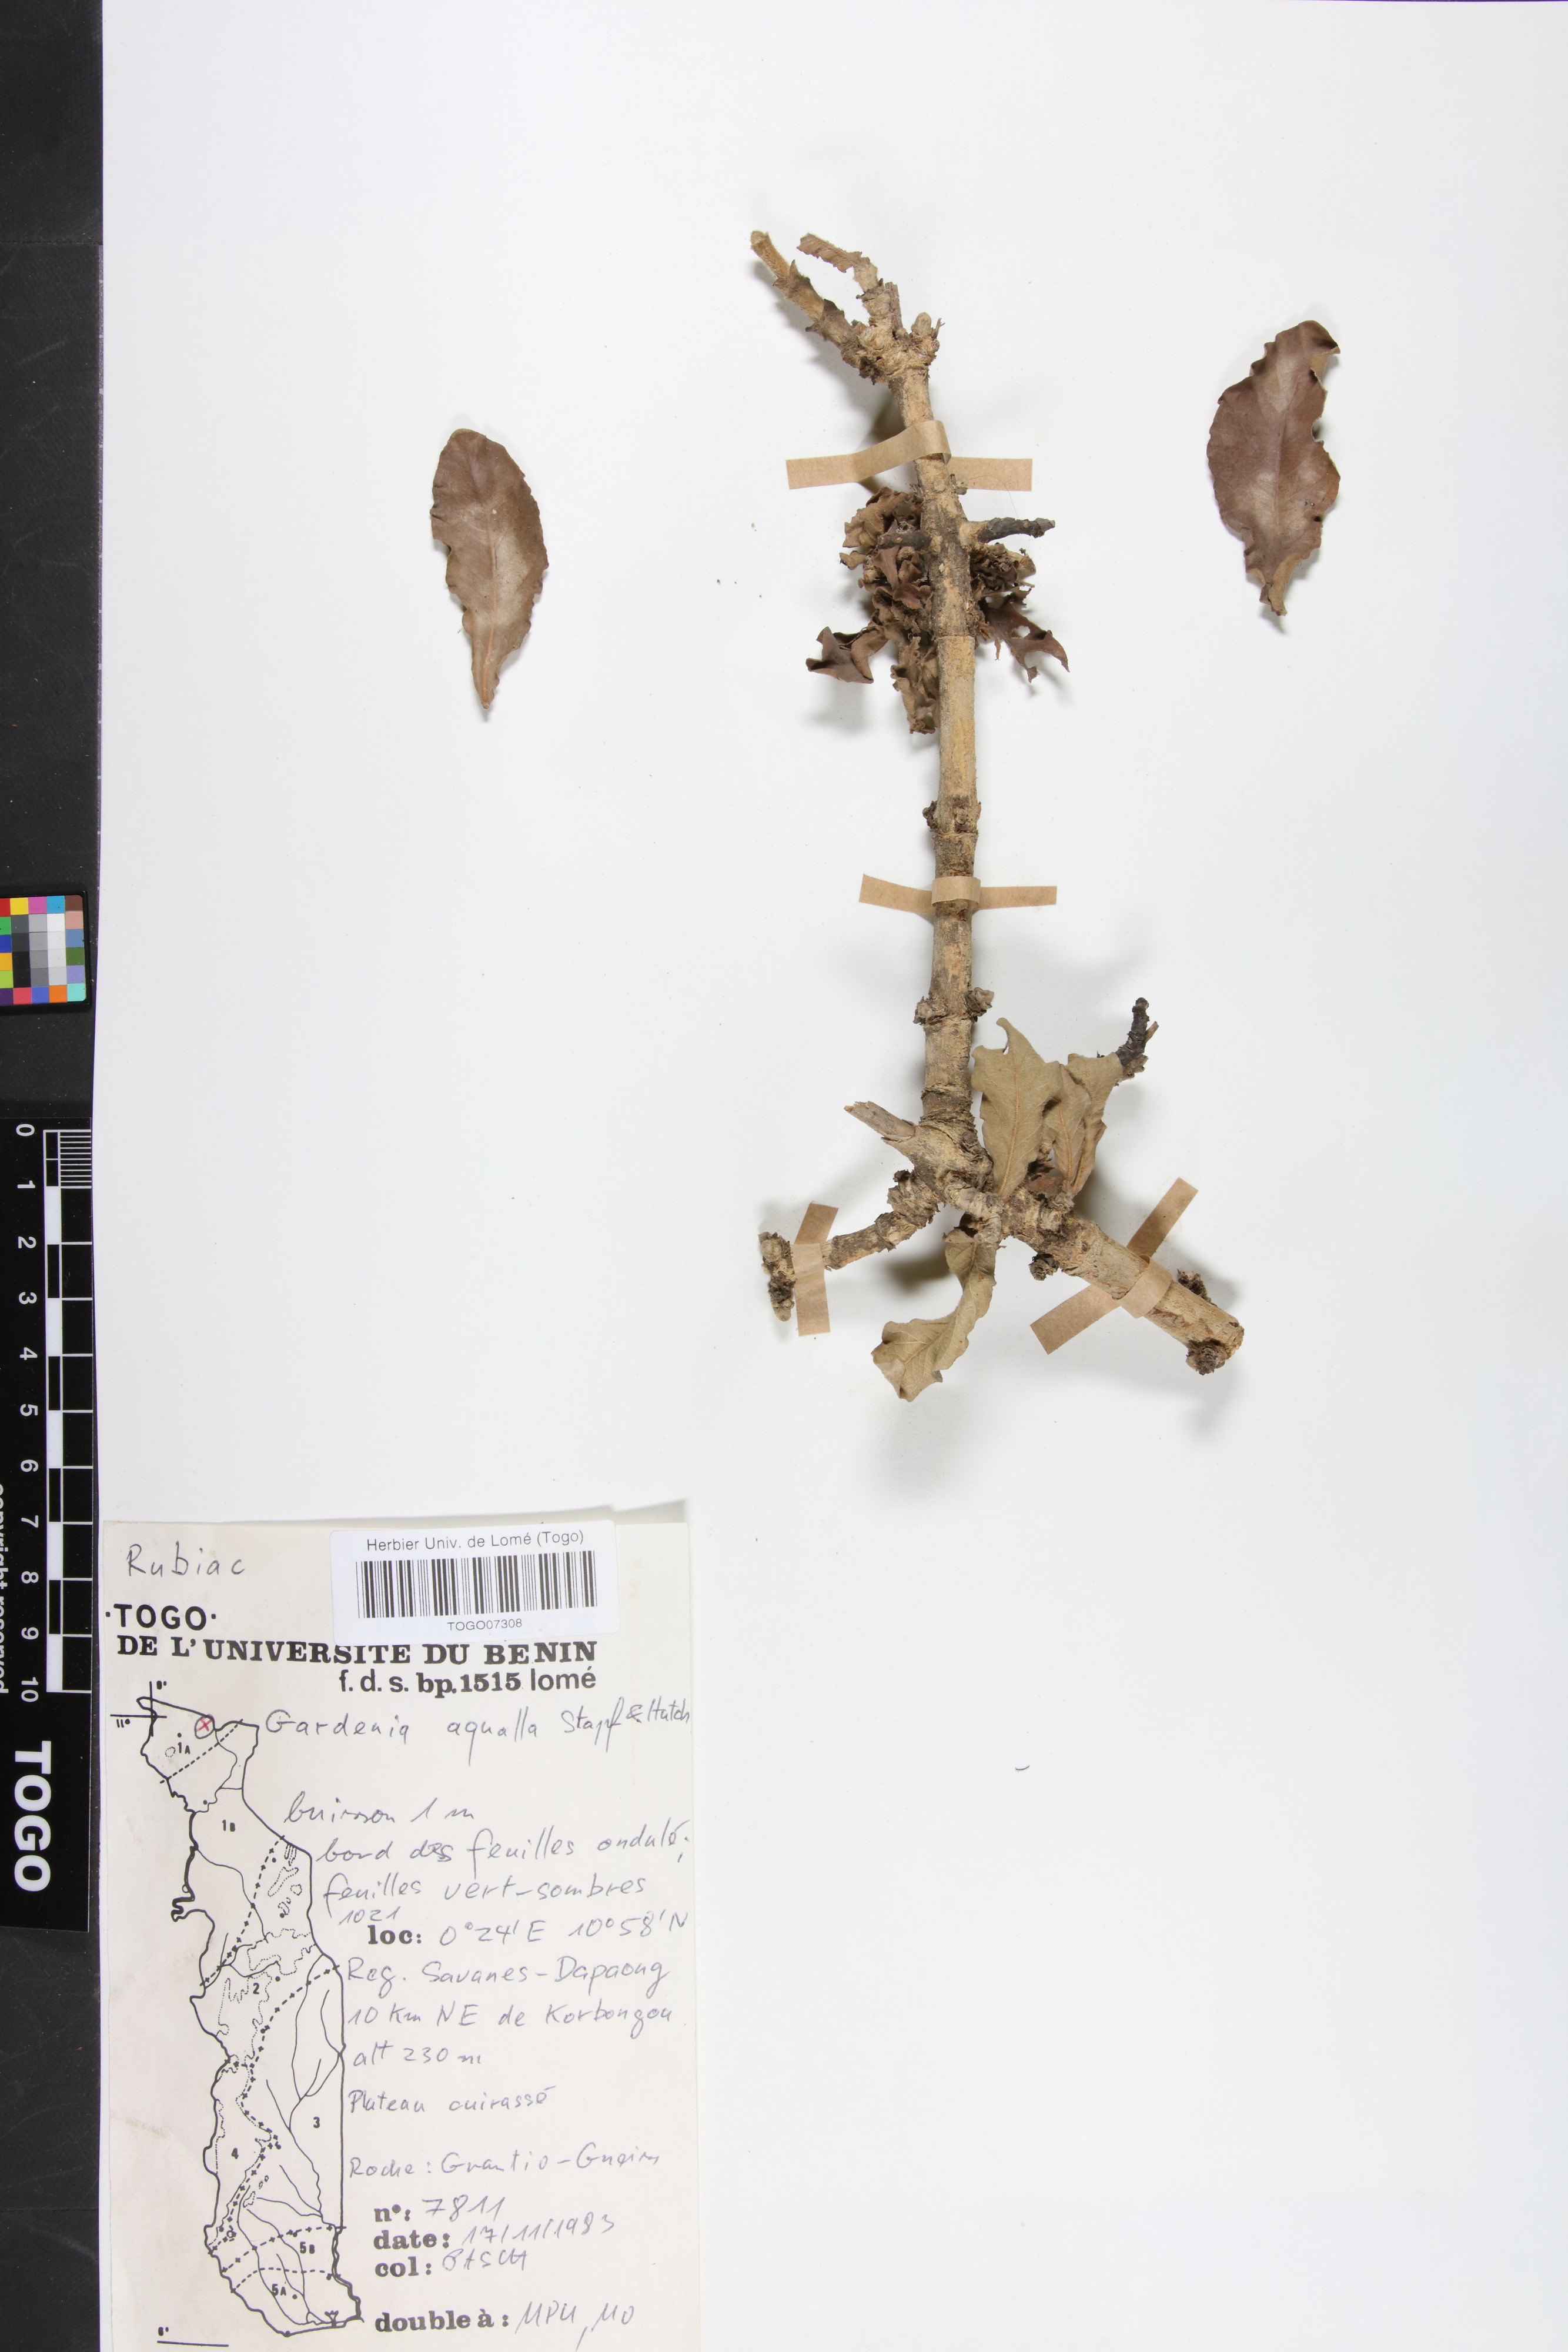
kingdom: Plantae
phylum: Tracheophyta
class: Magnoliopsida
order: Gentianales
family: Rubiaceae
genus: Gardenia
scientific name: Gardenia aqualla
